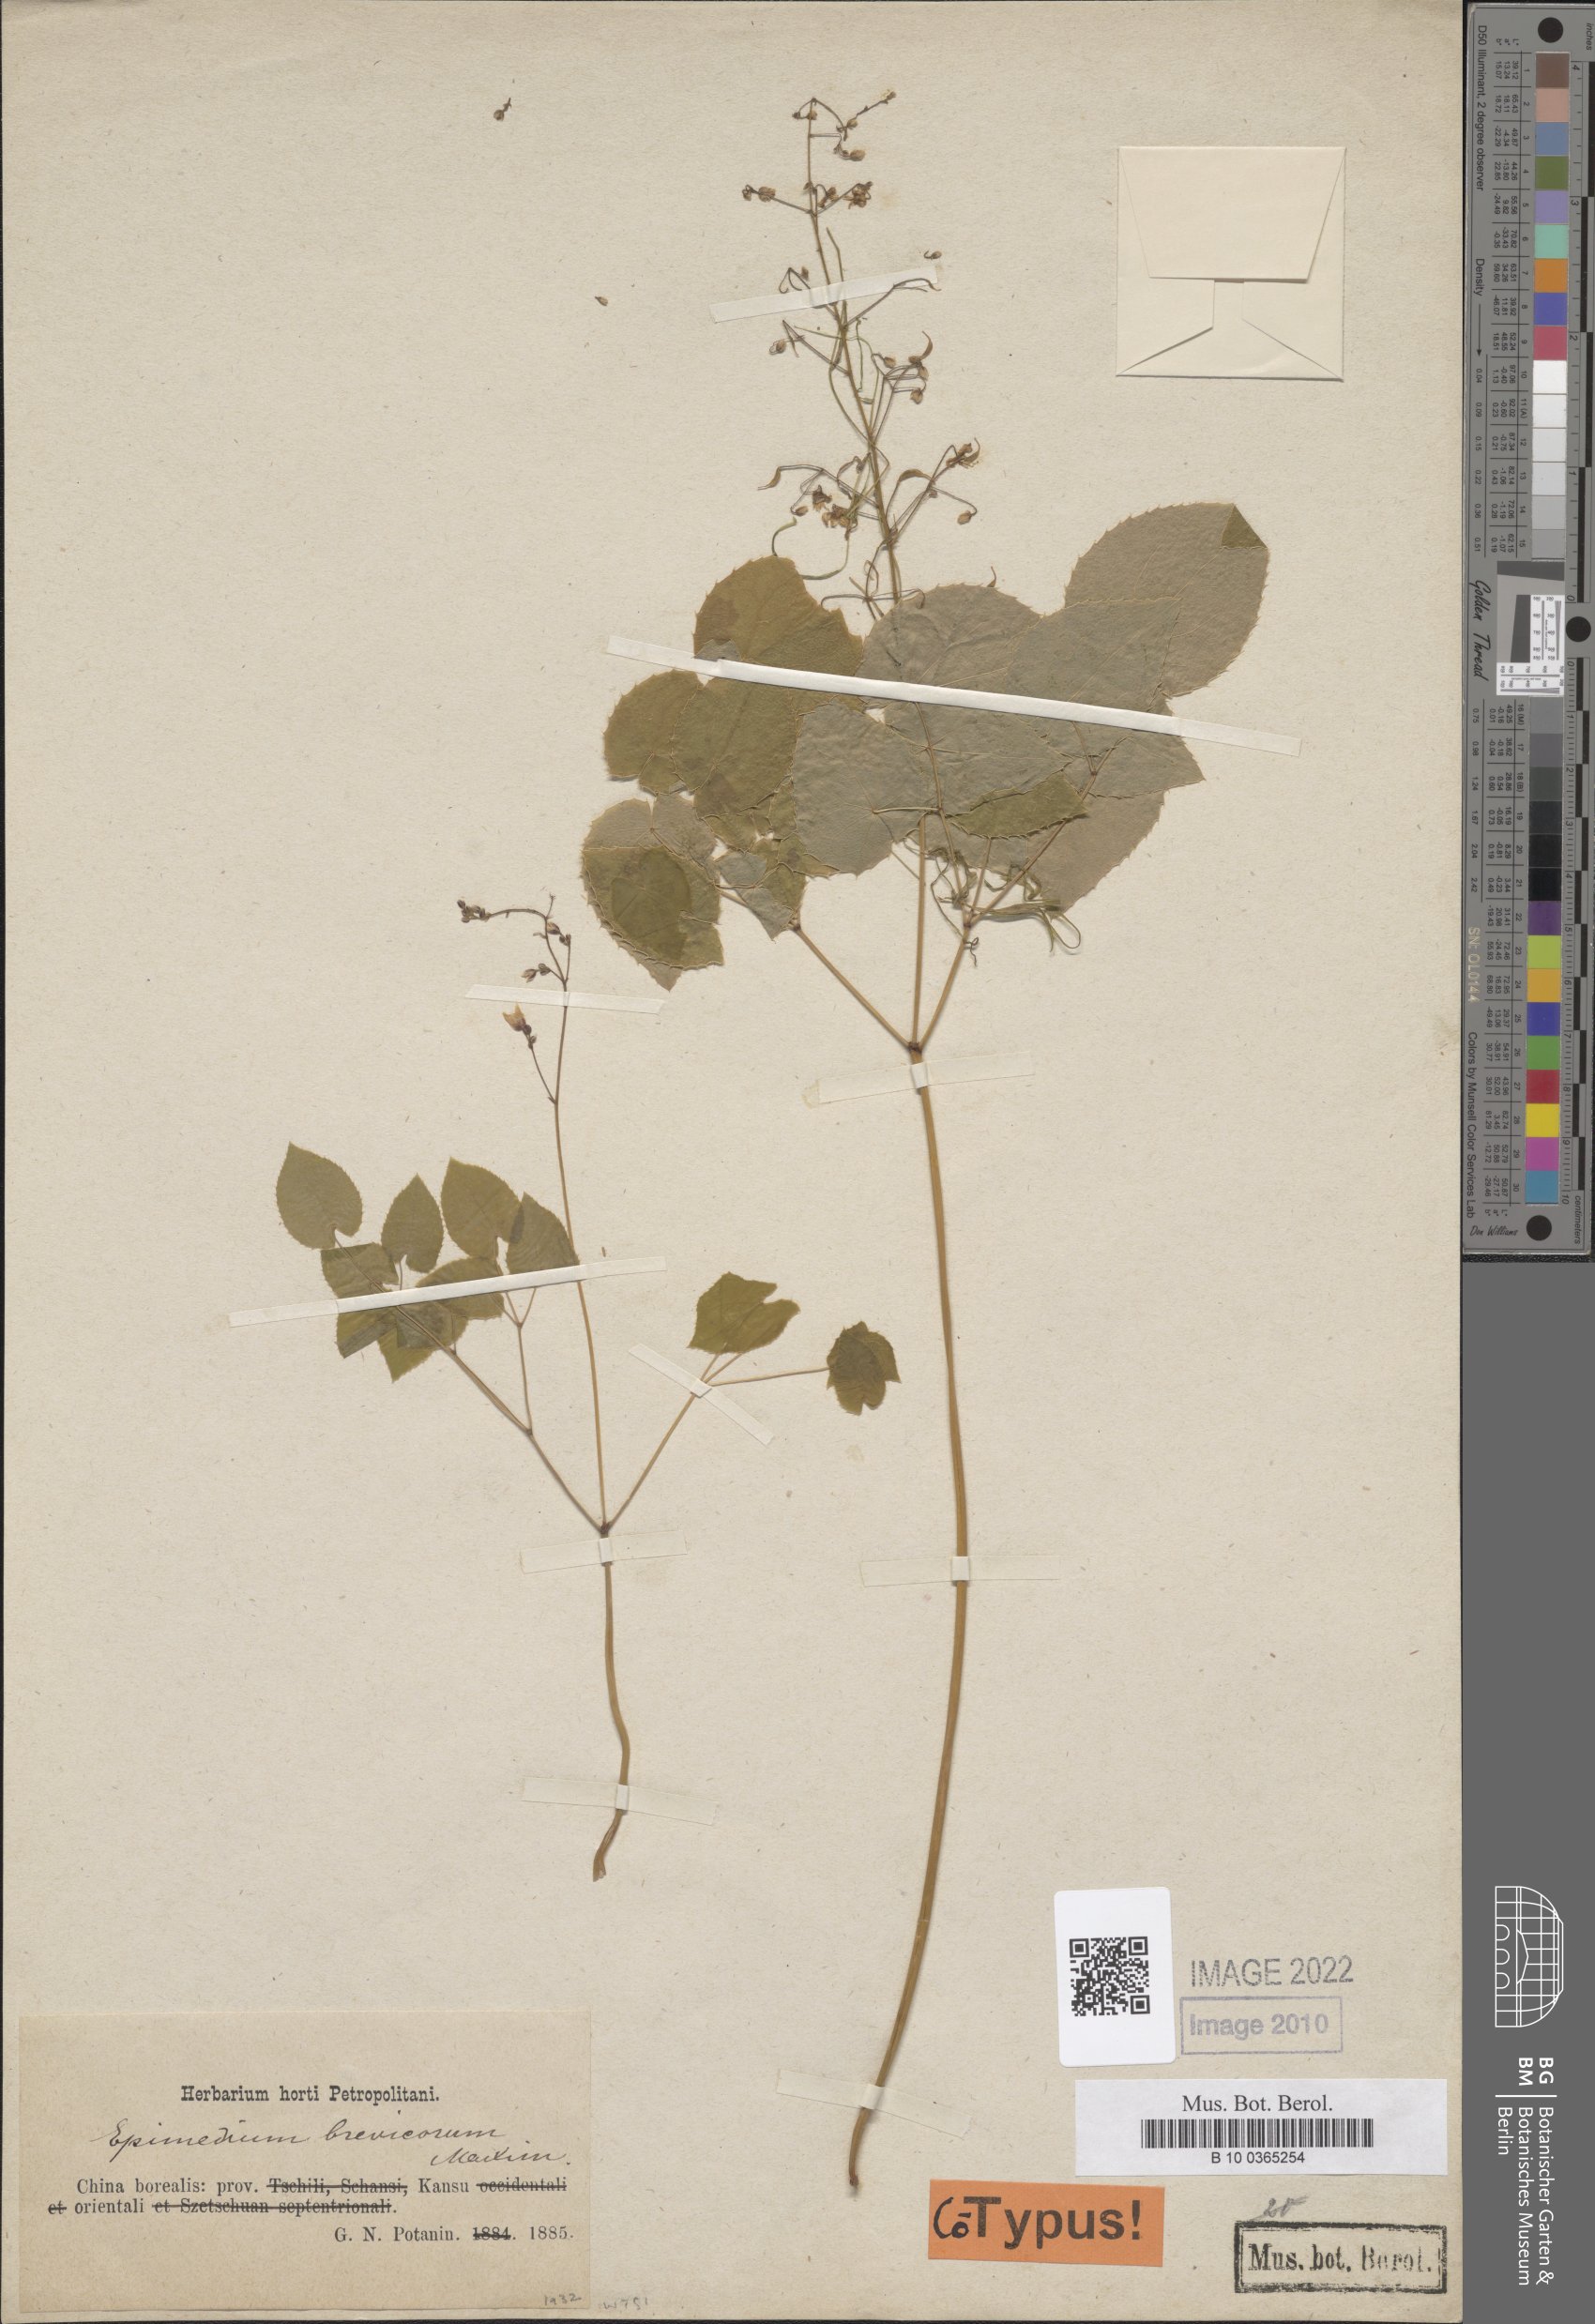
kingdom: Plantae
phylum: Tracheophyta
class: Magnoliopsida
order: Ranunculales
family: Berberidaceae
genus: Epimedium
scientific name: Epimedium brevicornu
